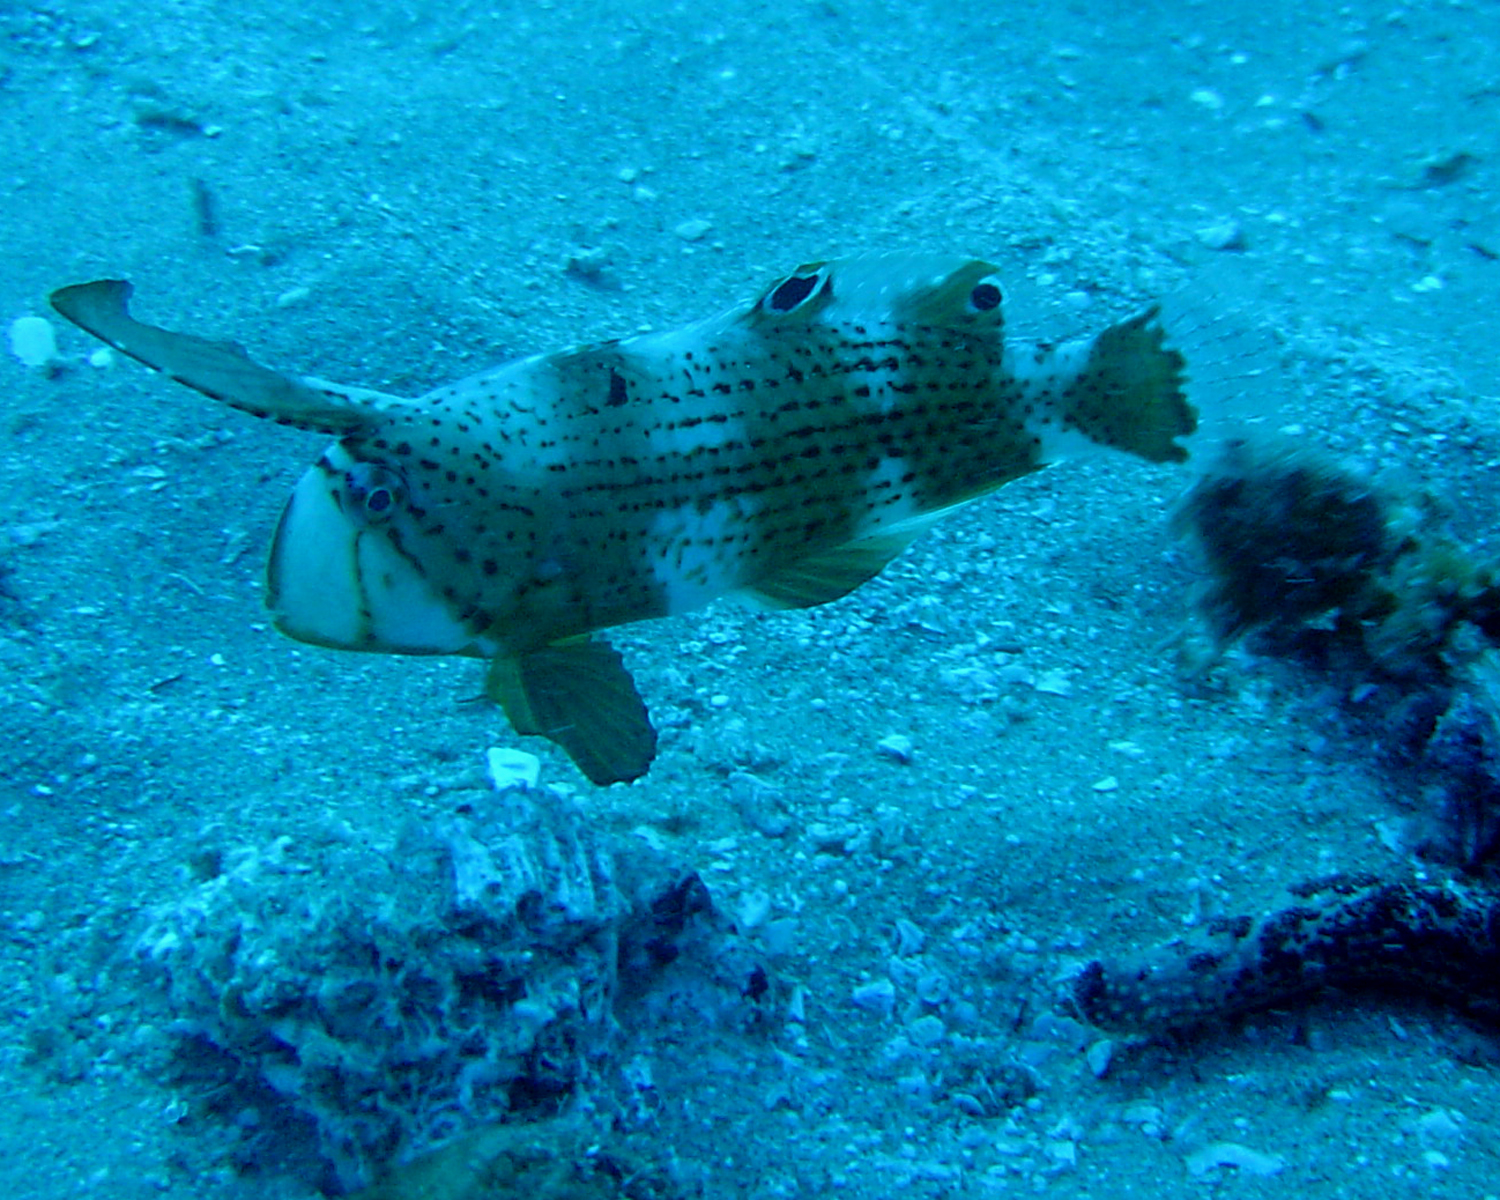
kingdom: Animalia
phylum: Chordata
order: Perciformes
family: Labridae
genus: Iniistius
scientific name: Iniistius pavo
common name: Peacock wrasse
